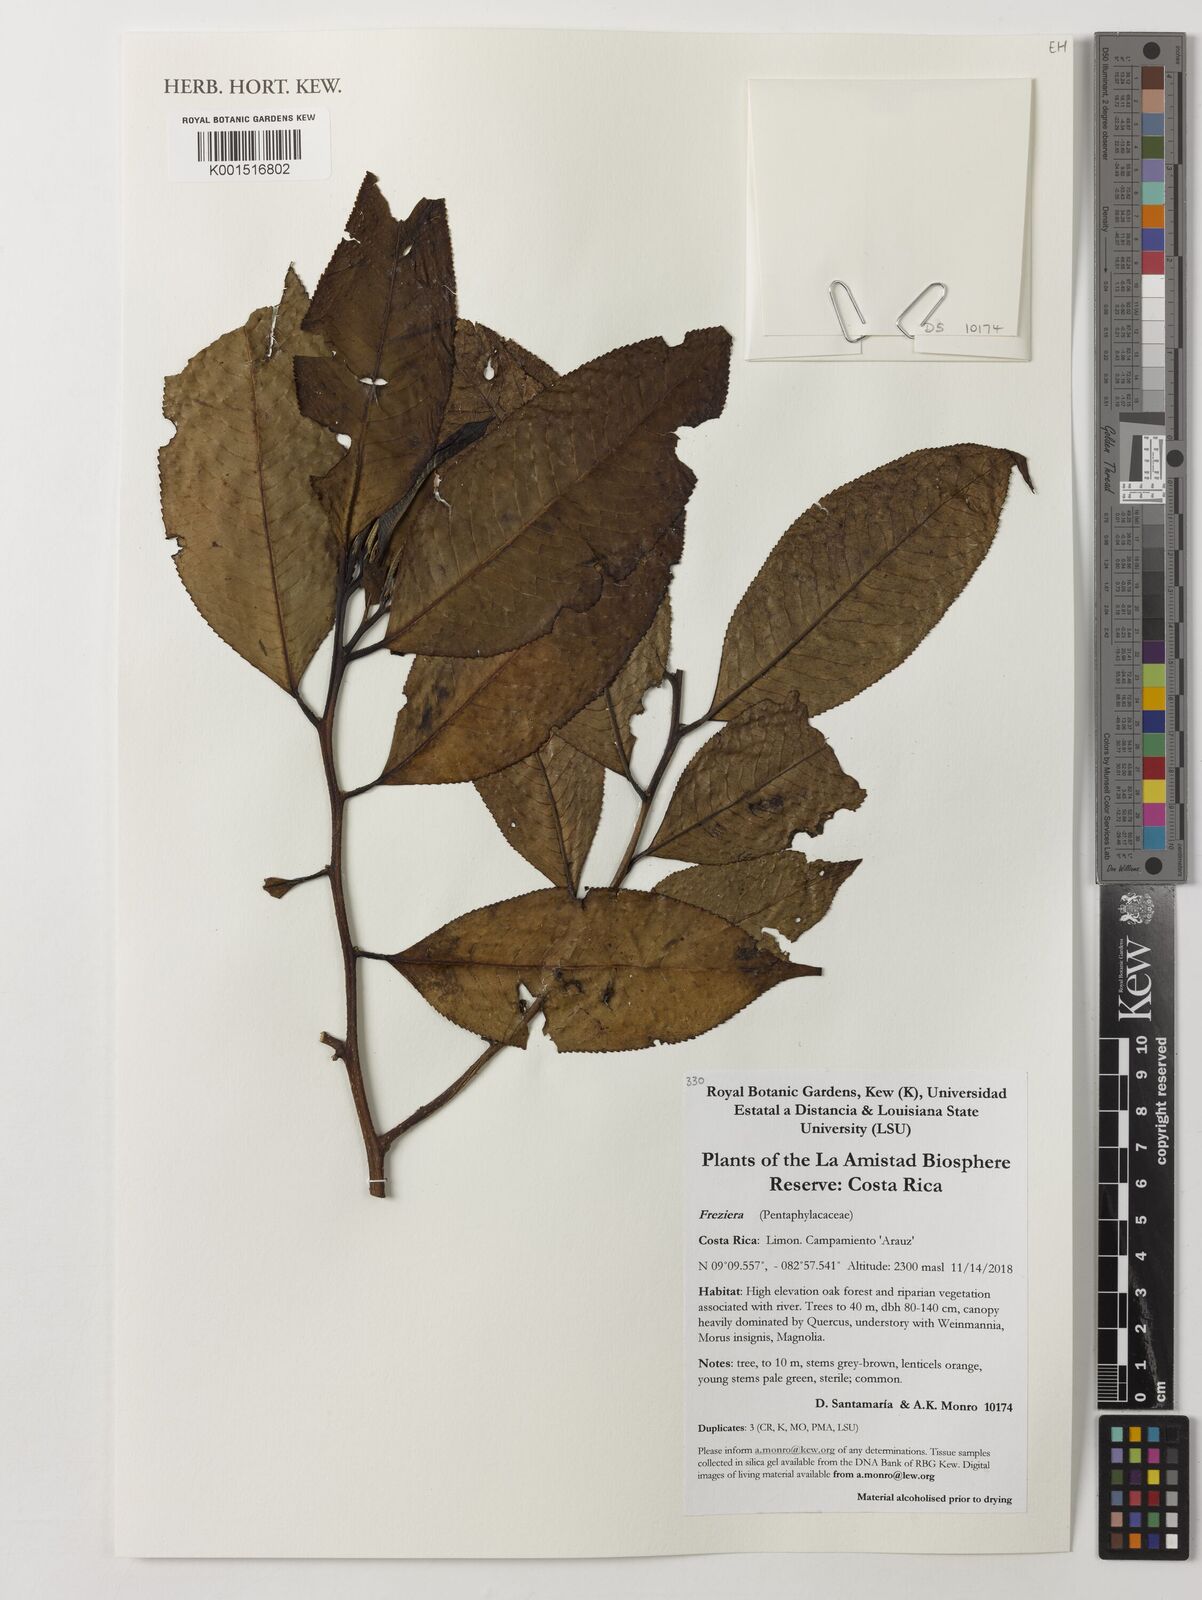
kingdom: Plantae
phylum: Tracheophyta
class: Magnoliopsida
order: Ericales
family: Pentaphylacaceae
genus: Freziera
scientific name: Freziera
